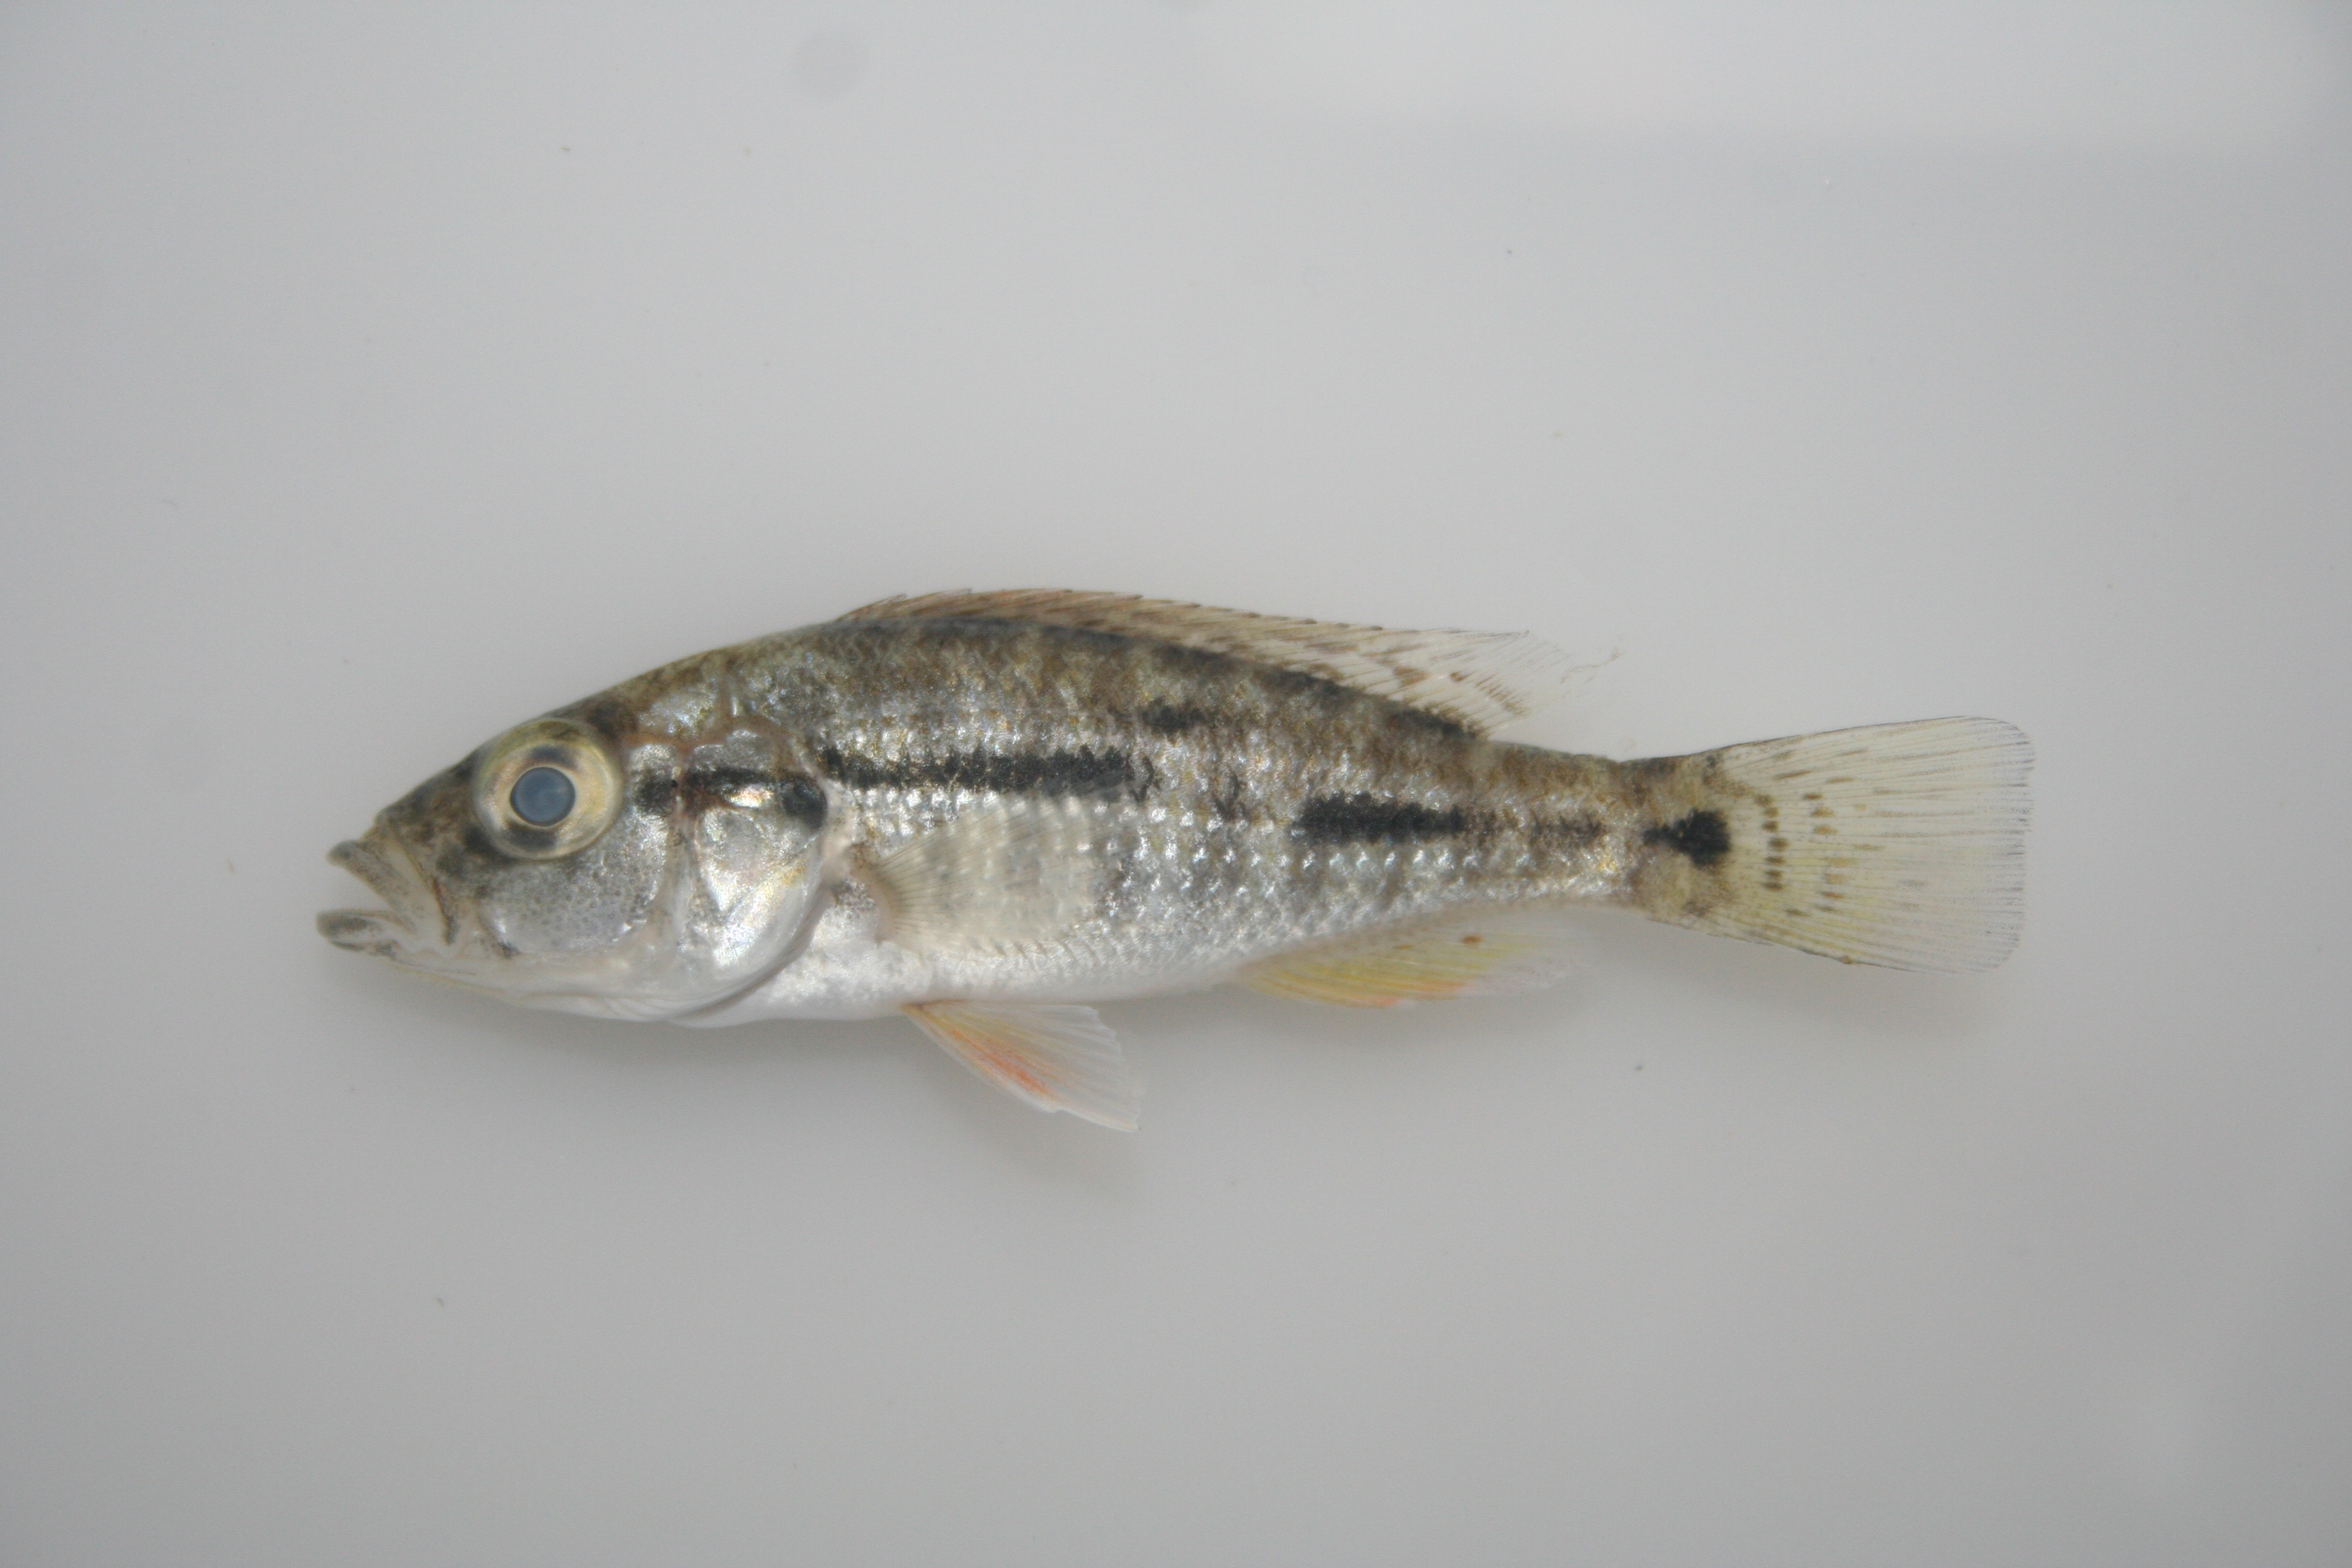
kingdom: Animalia
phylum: Chordata
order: Perciformes
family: Cichlidae
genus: Serranochromis
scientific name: Serranochromis
